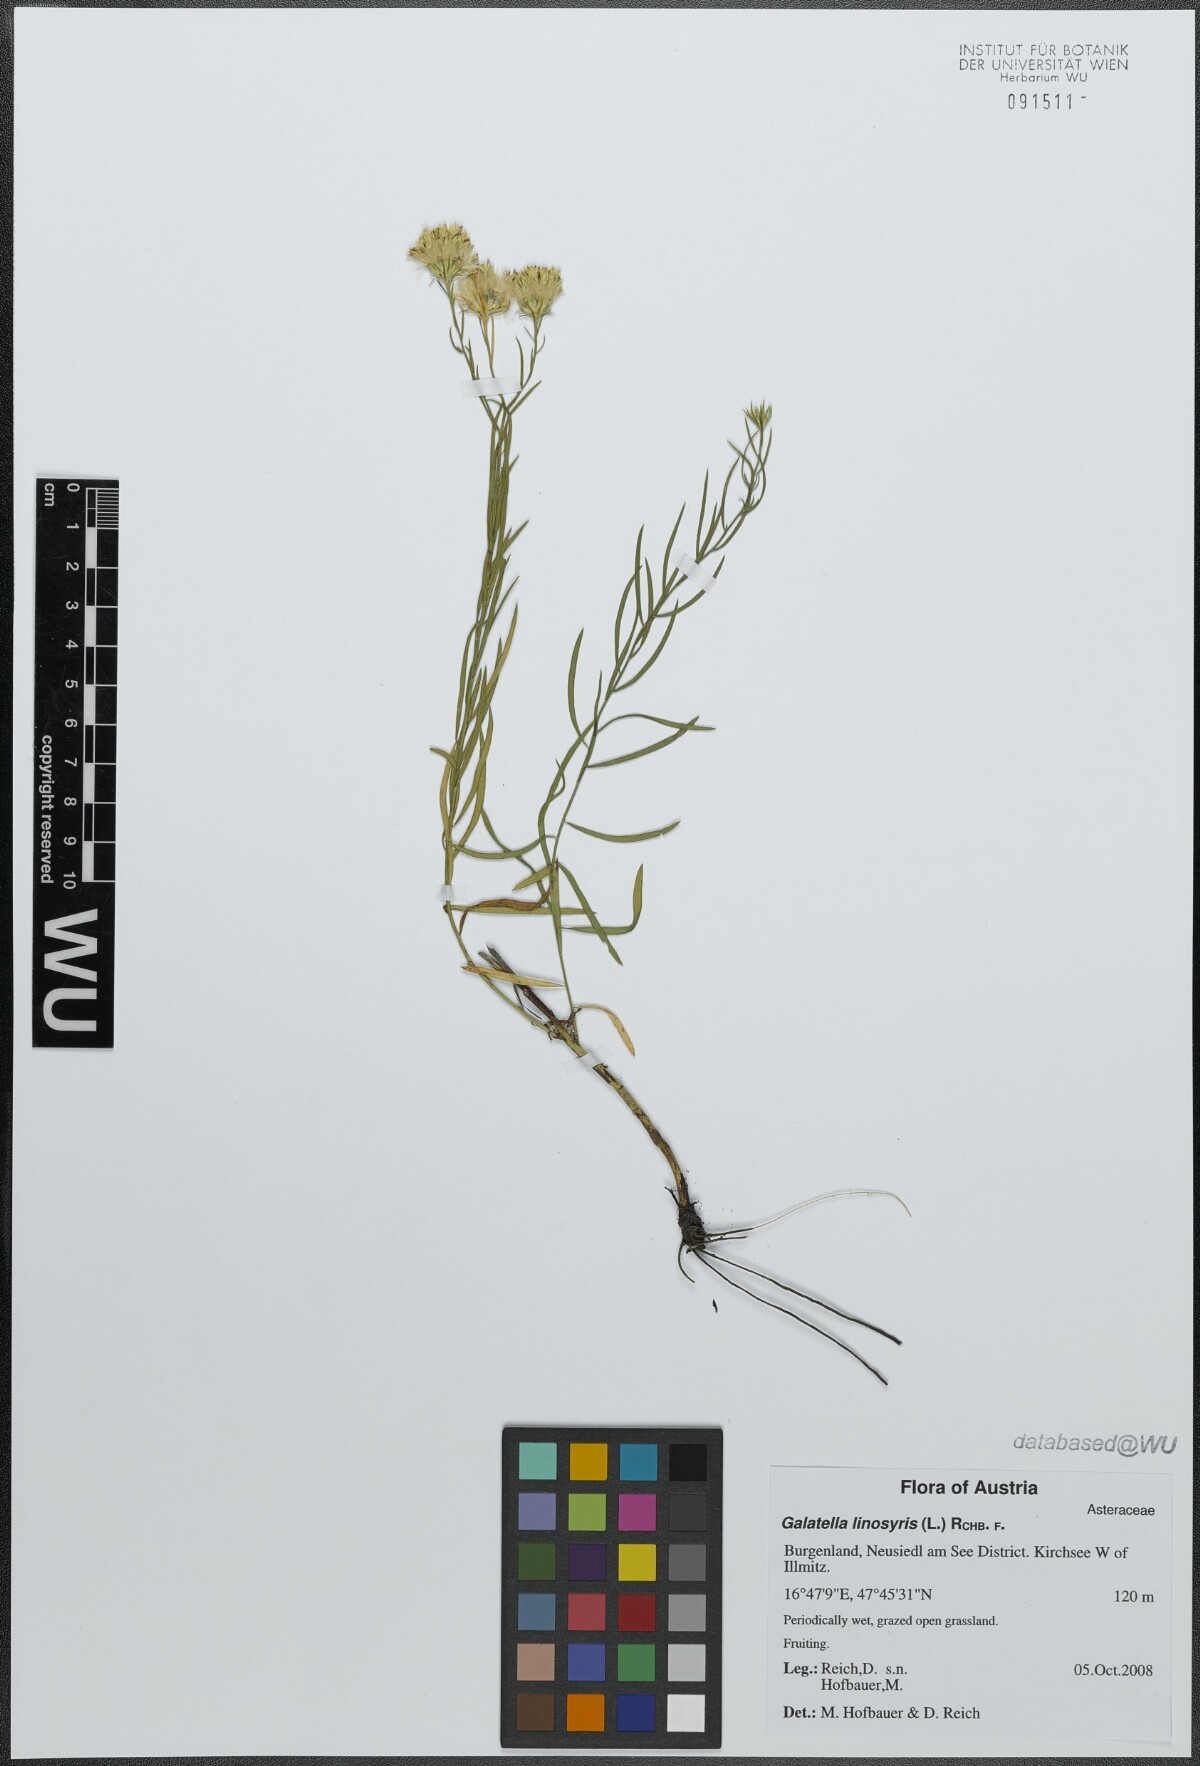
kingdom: Plantae
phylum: Tracheophyta
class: Magnoliopsida
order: Asterales
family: Asteraceae
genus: Galatella
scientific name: Galatella linosyris
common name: Goldilocks aster
